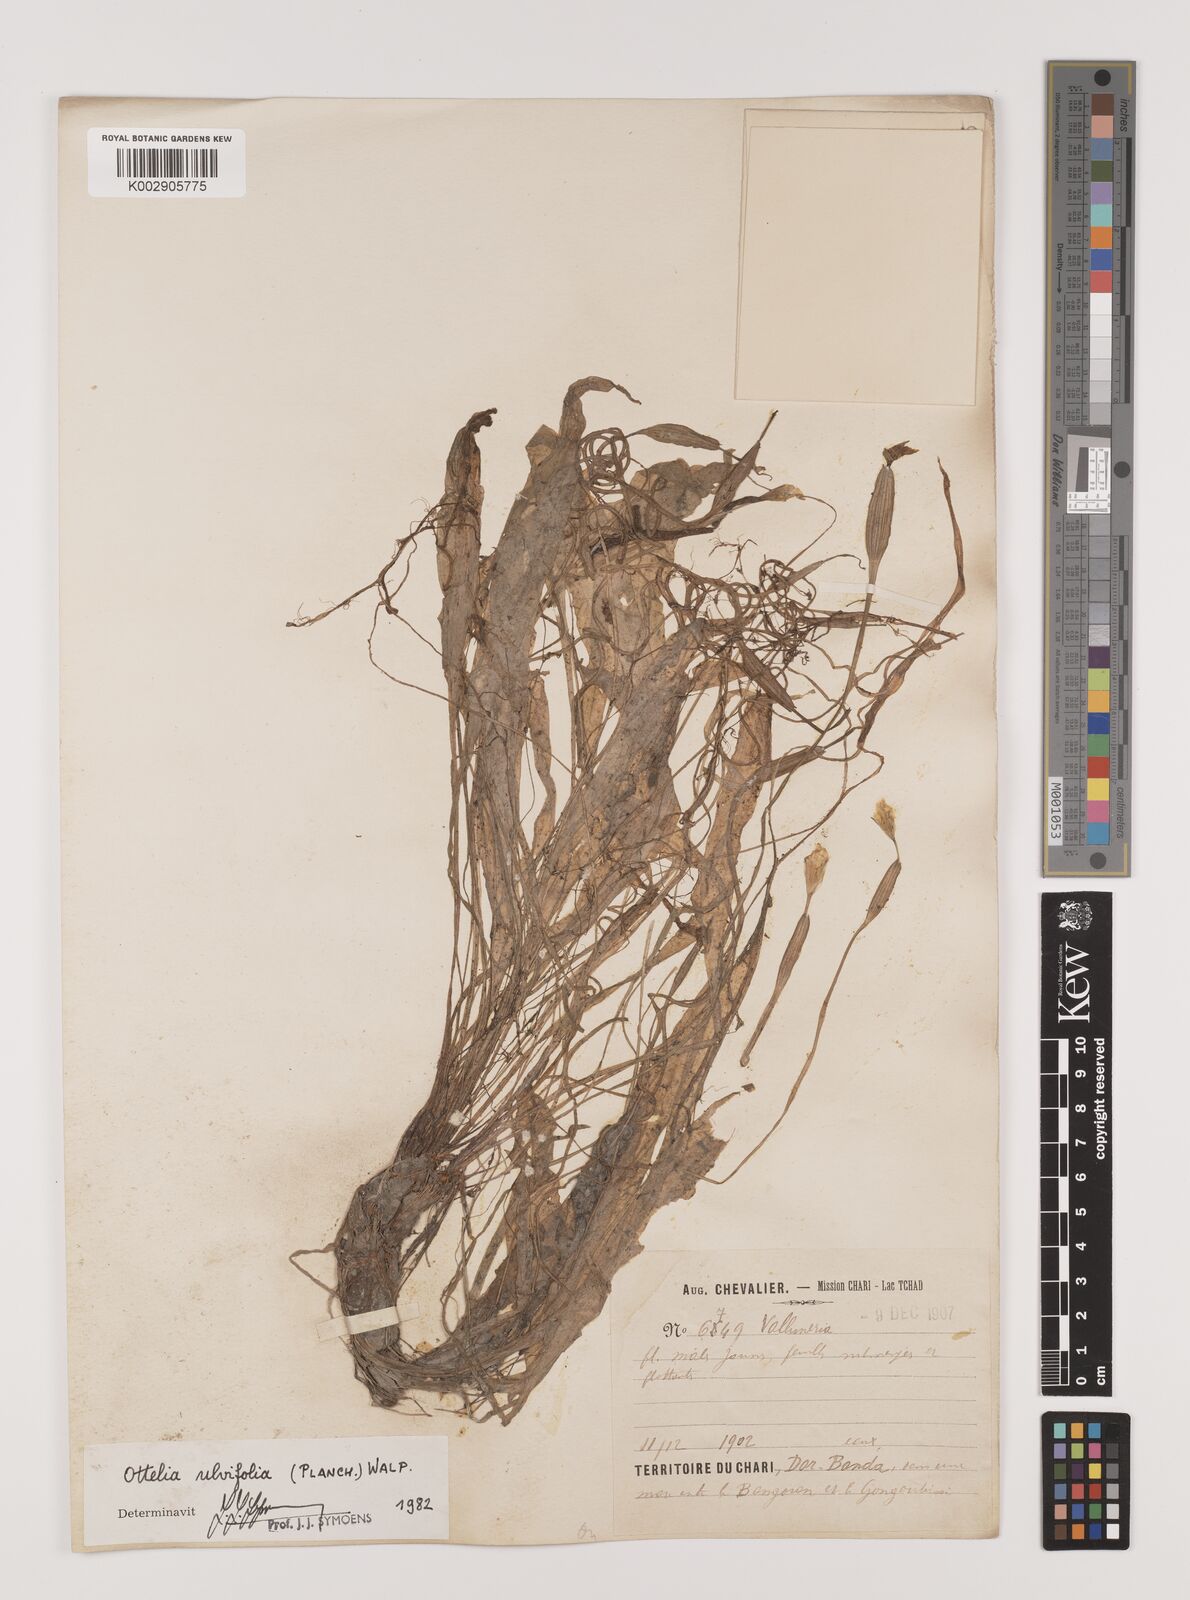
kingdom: Plantae
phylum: Tracheophyta
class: Liliopsida
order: Alismatales
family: Hydrocharitaceae
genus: Ottelia
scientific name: Ottelia ulvifolia
